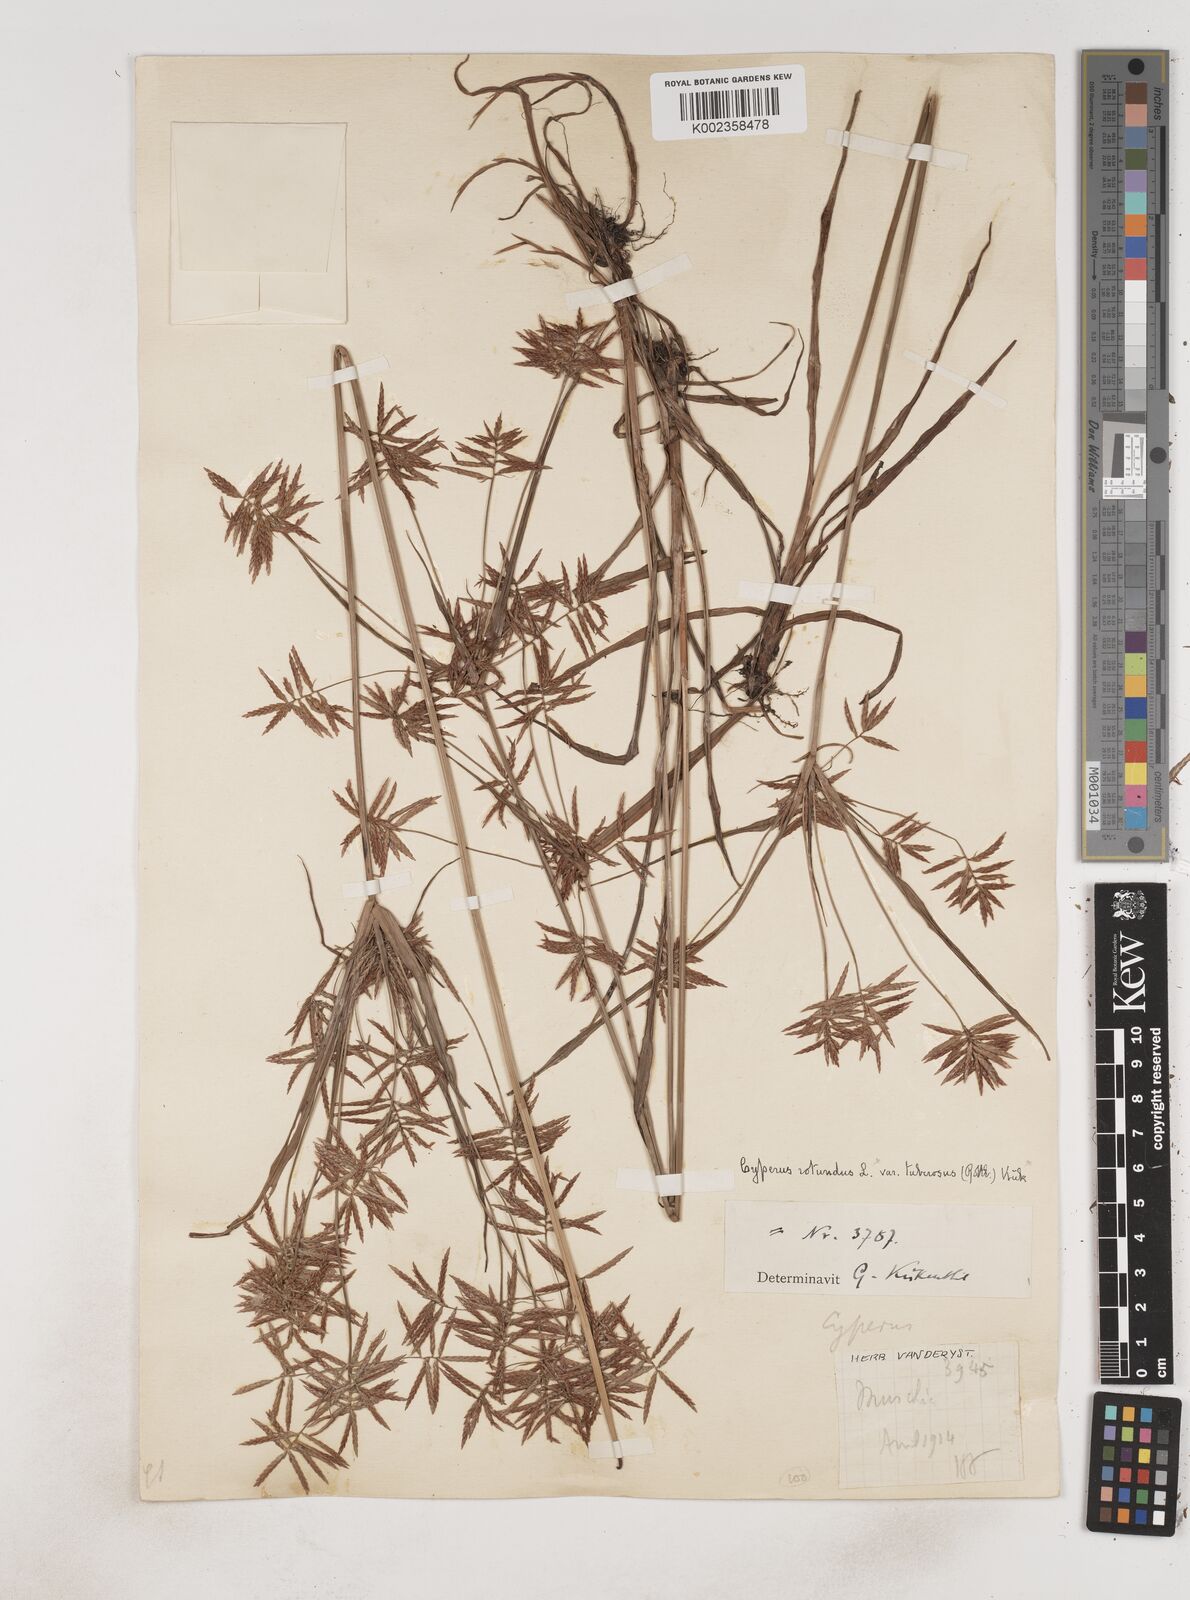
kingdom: Plantae
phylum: Tracheophyta
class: Liliopsida
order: Poales
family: Cyperaceae
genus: Cyperus
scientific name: Cyperus dilatatus
